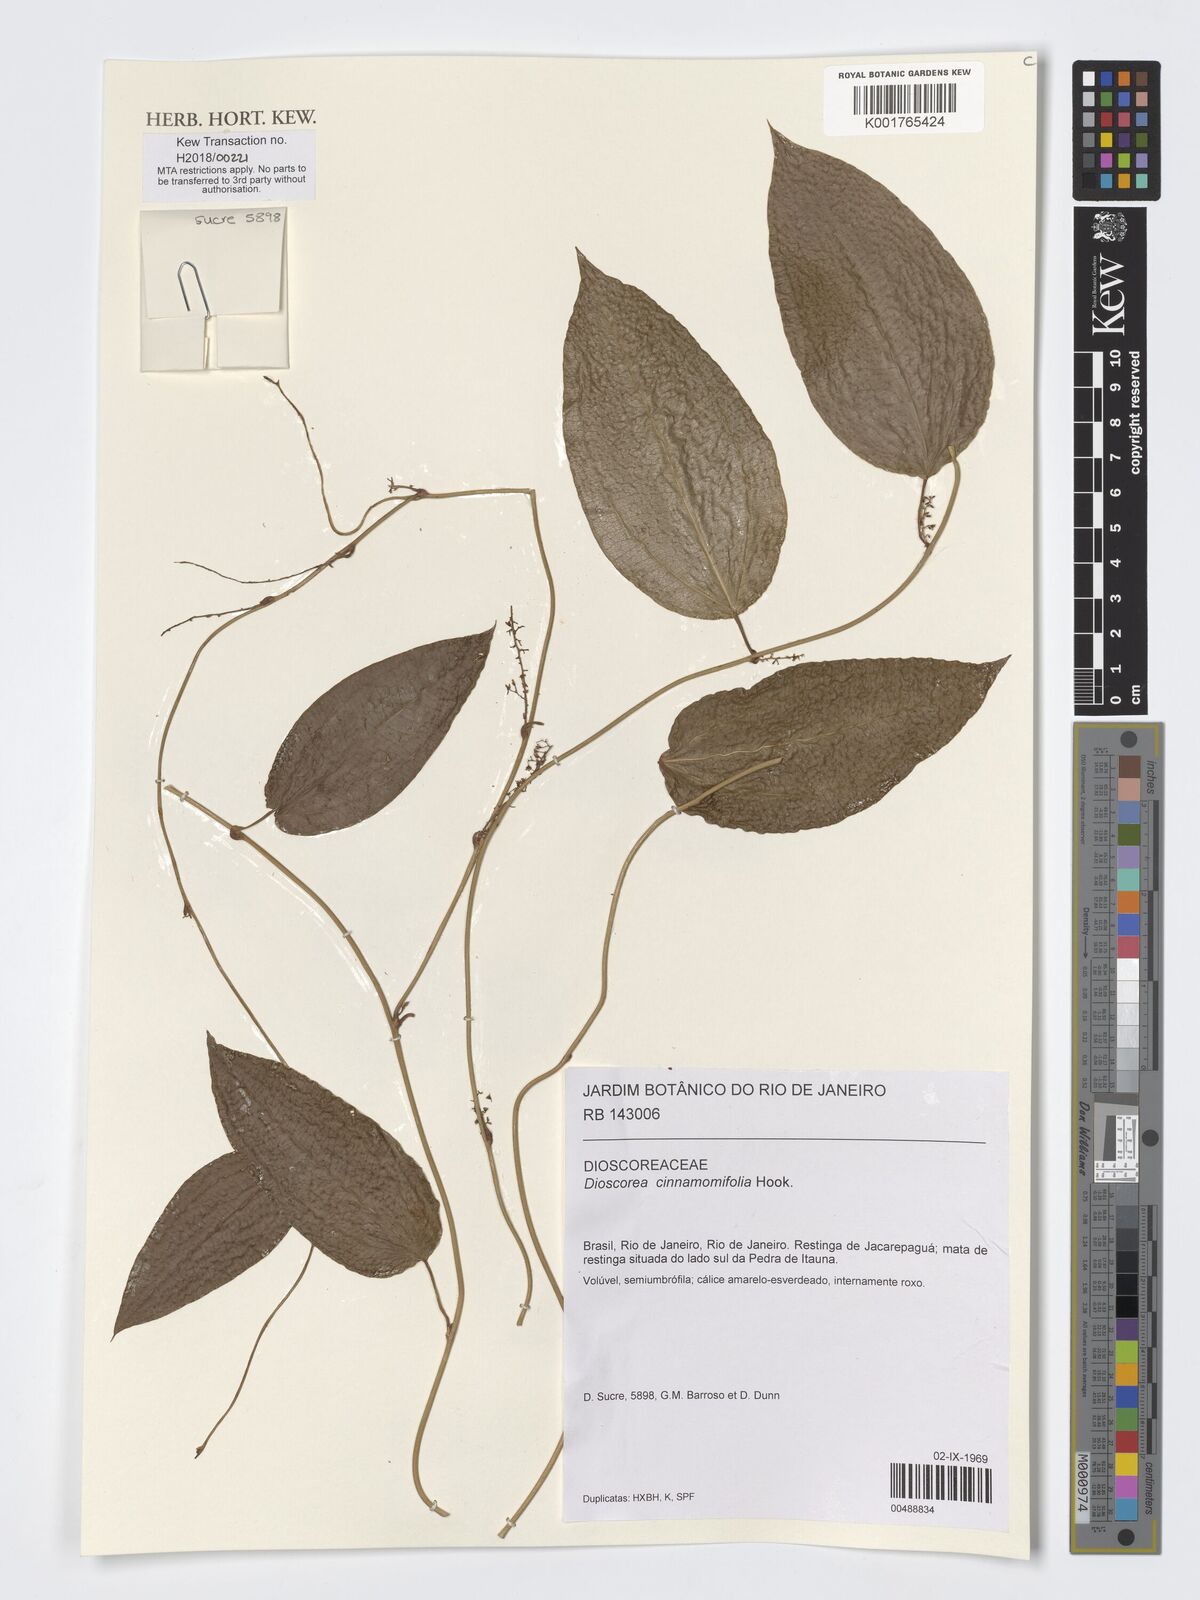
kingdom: Plantae
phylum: Tracheophyta
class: Liliopsida
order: Dioscoreales
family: Dioscoreaceae
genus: Dioscorea
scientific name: Dioscorea cinnamomifolia
